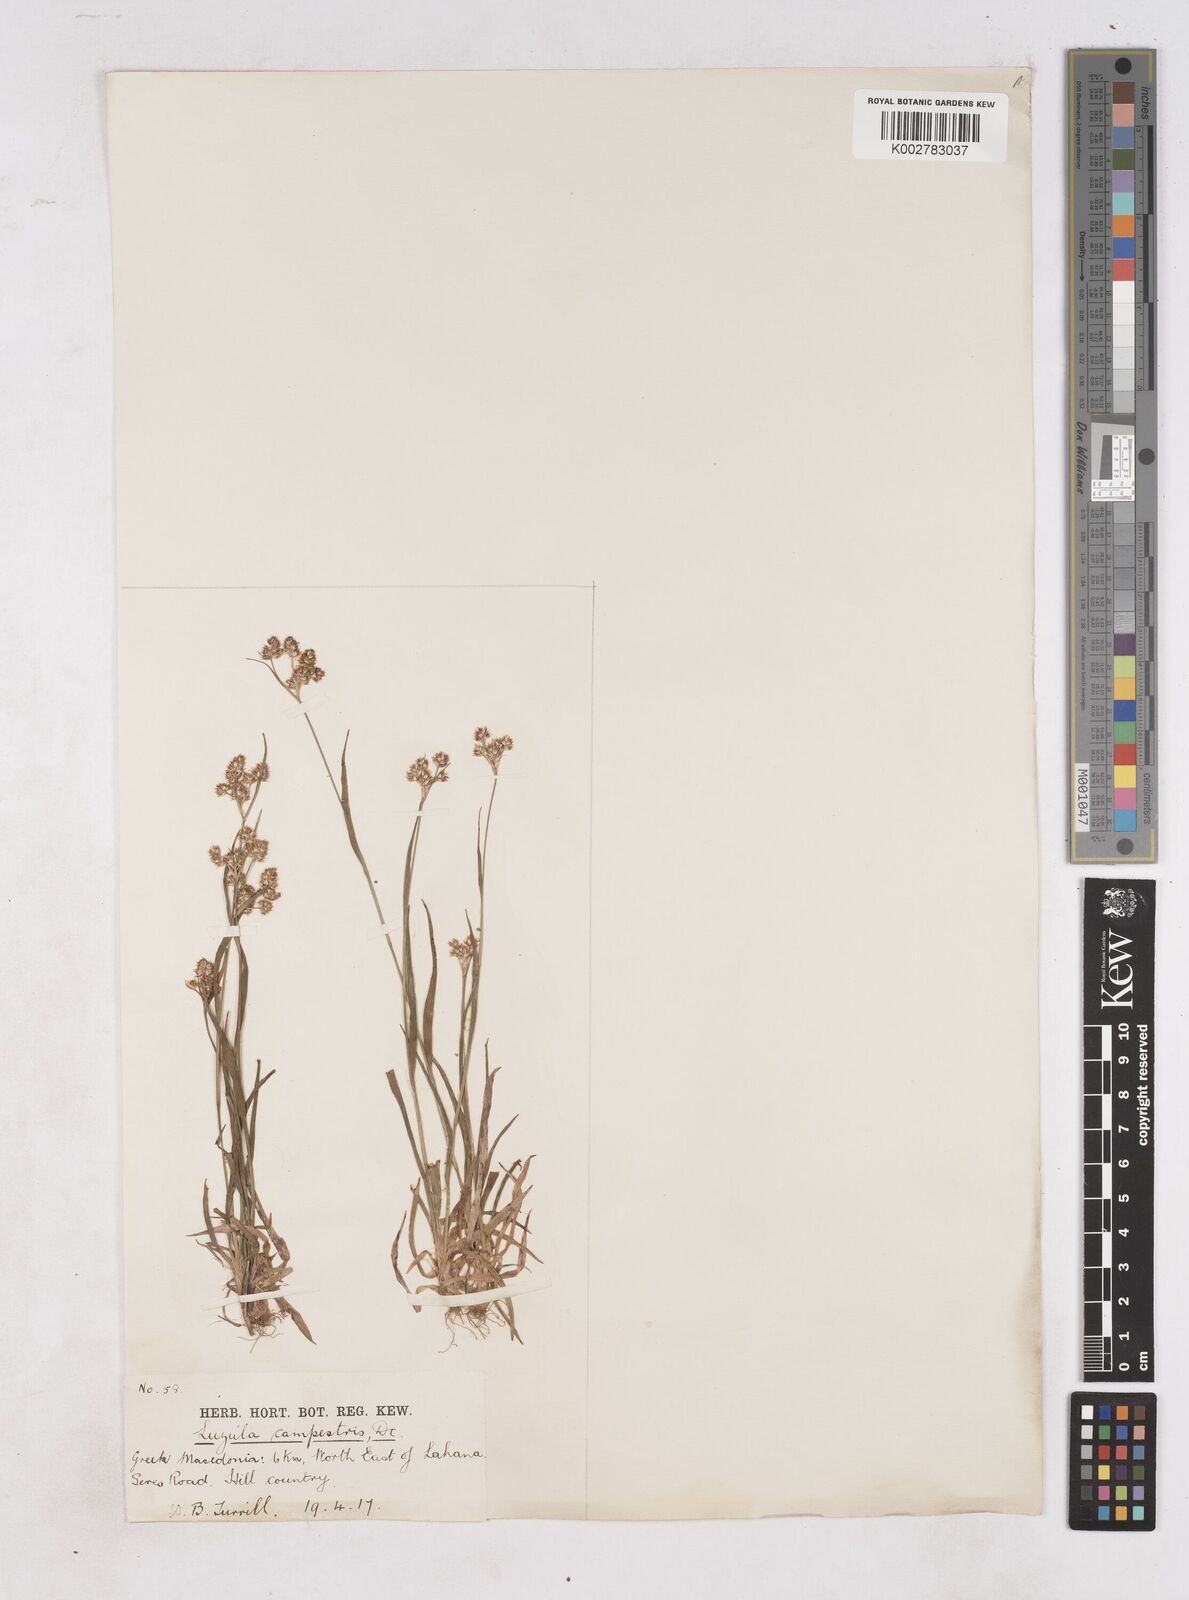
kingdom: Plantae
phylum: Tracheophyta
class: Liliopsida
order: Poales
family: Juncaceae
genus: Luzula
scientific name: Luzula campestris
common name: Field wood-rush
